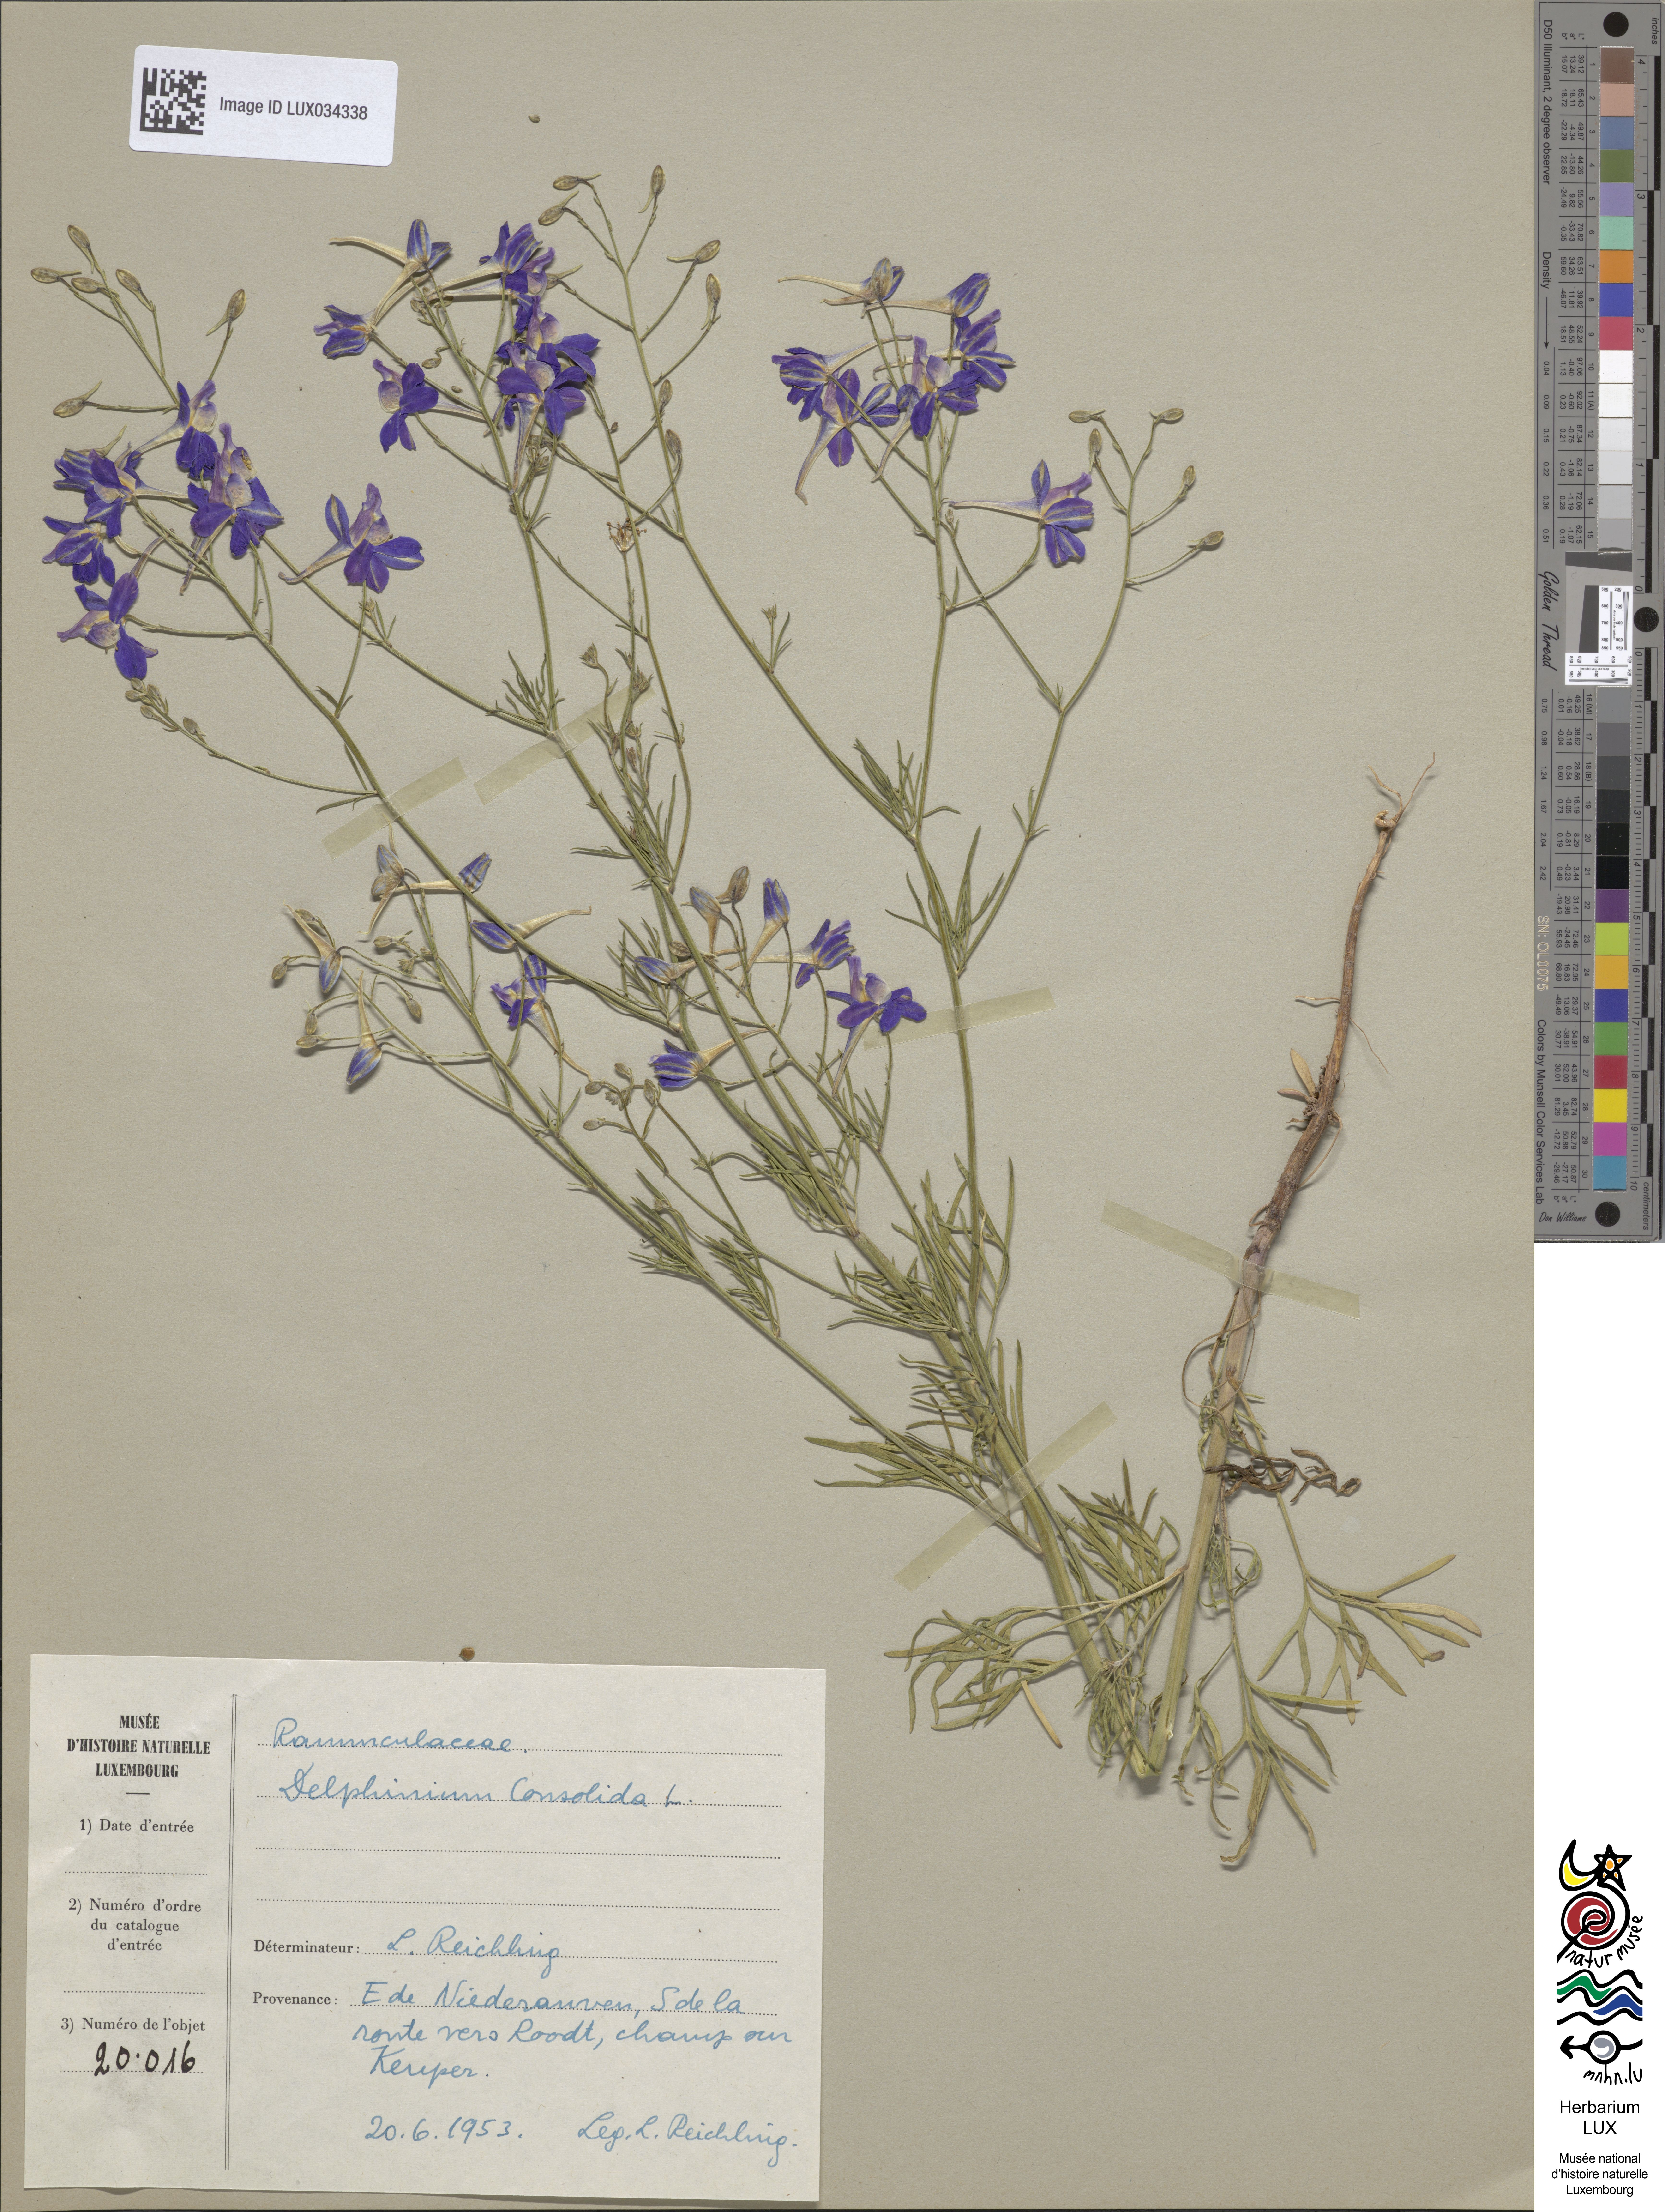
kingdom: Plantae
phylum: Tracheophyta
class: Magnoliopsida
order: Ranunculales
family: Ranunculaceae
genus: Delphinium
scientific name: Delphinium consolida
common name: Branching larkspur
